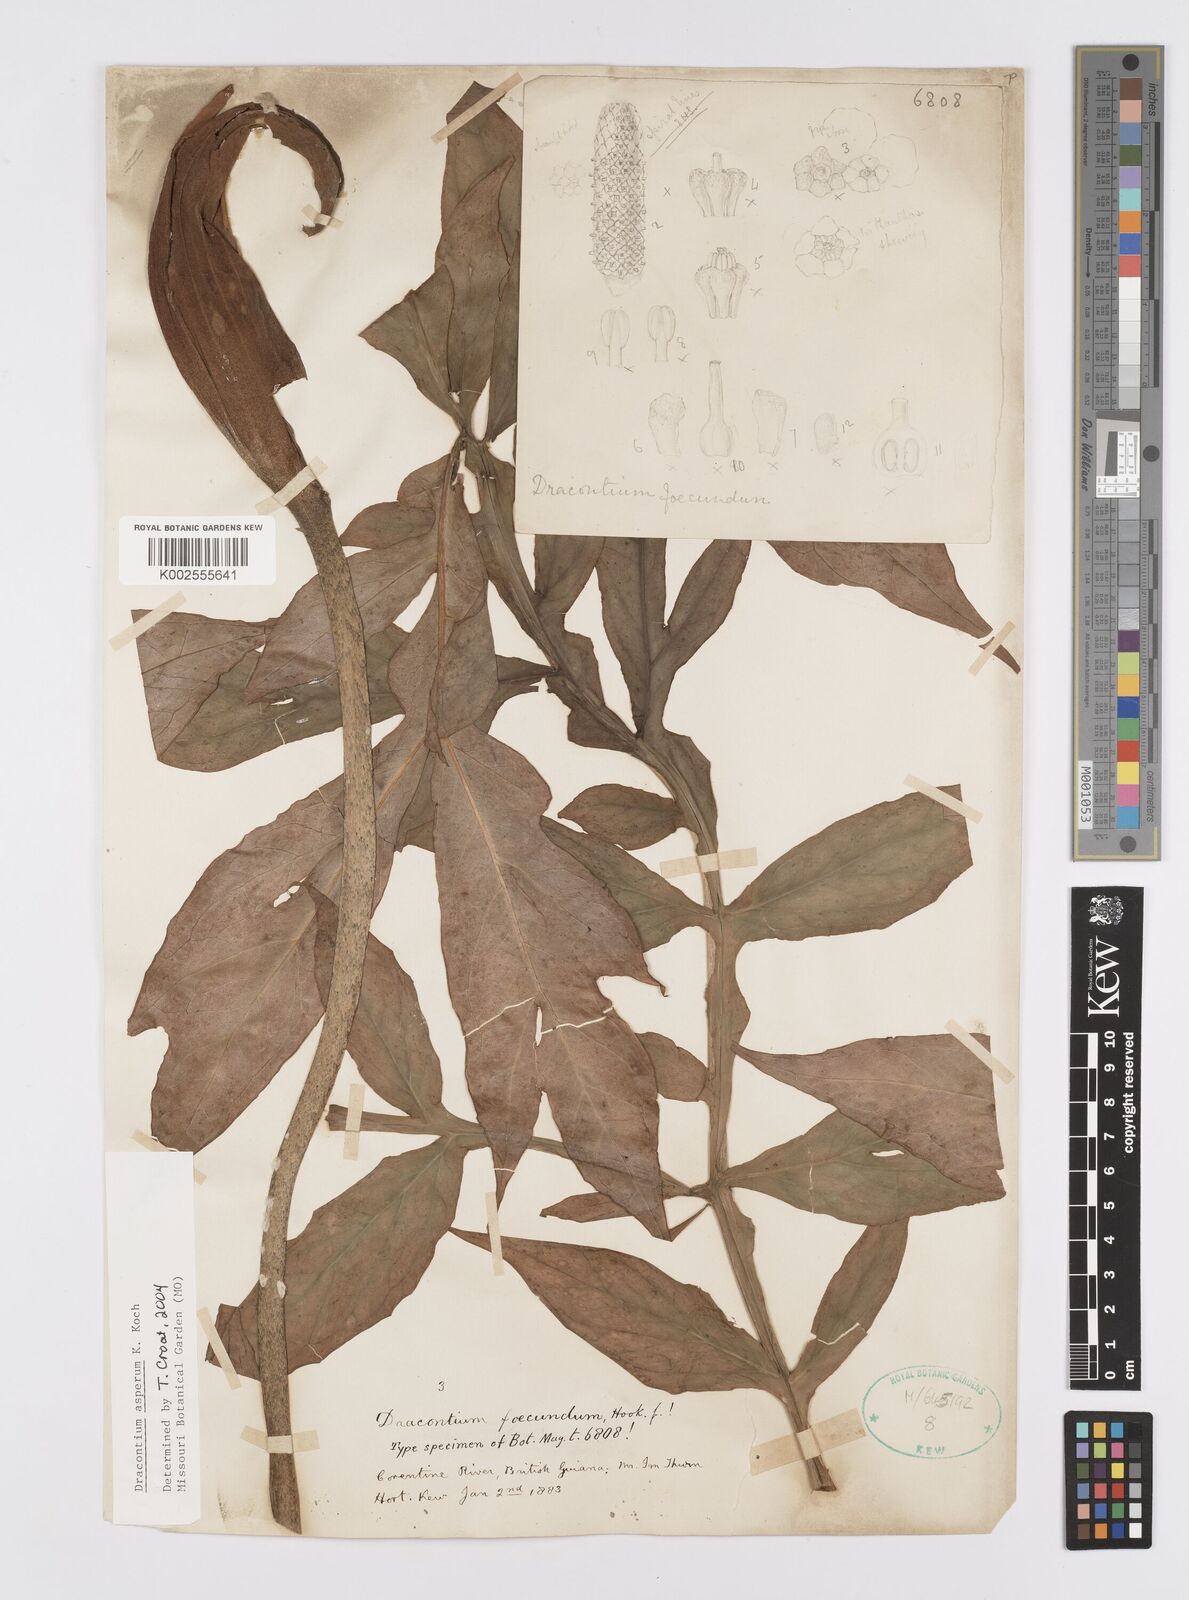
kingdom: Plantae
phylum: Tracheophyta
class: Liliopsida
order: Alismatales
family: Araceae
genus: Dracontium
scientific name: Dracontium asperum
